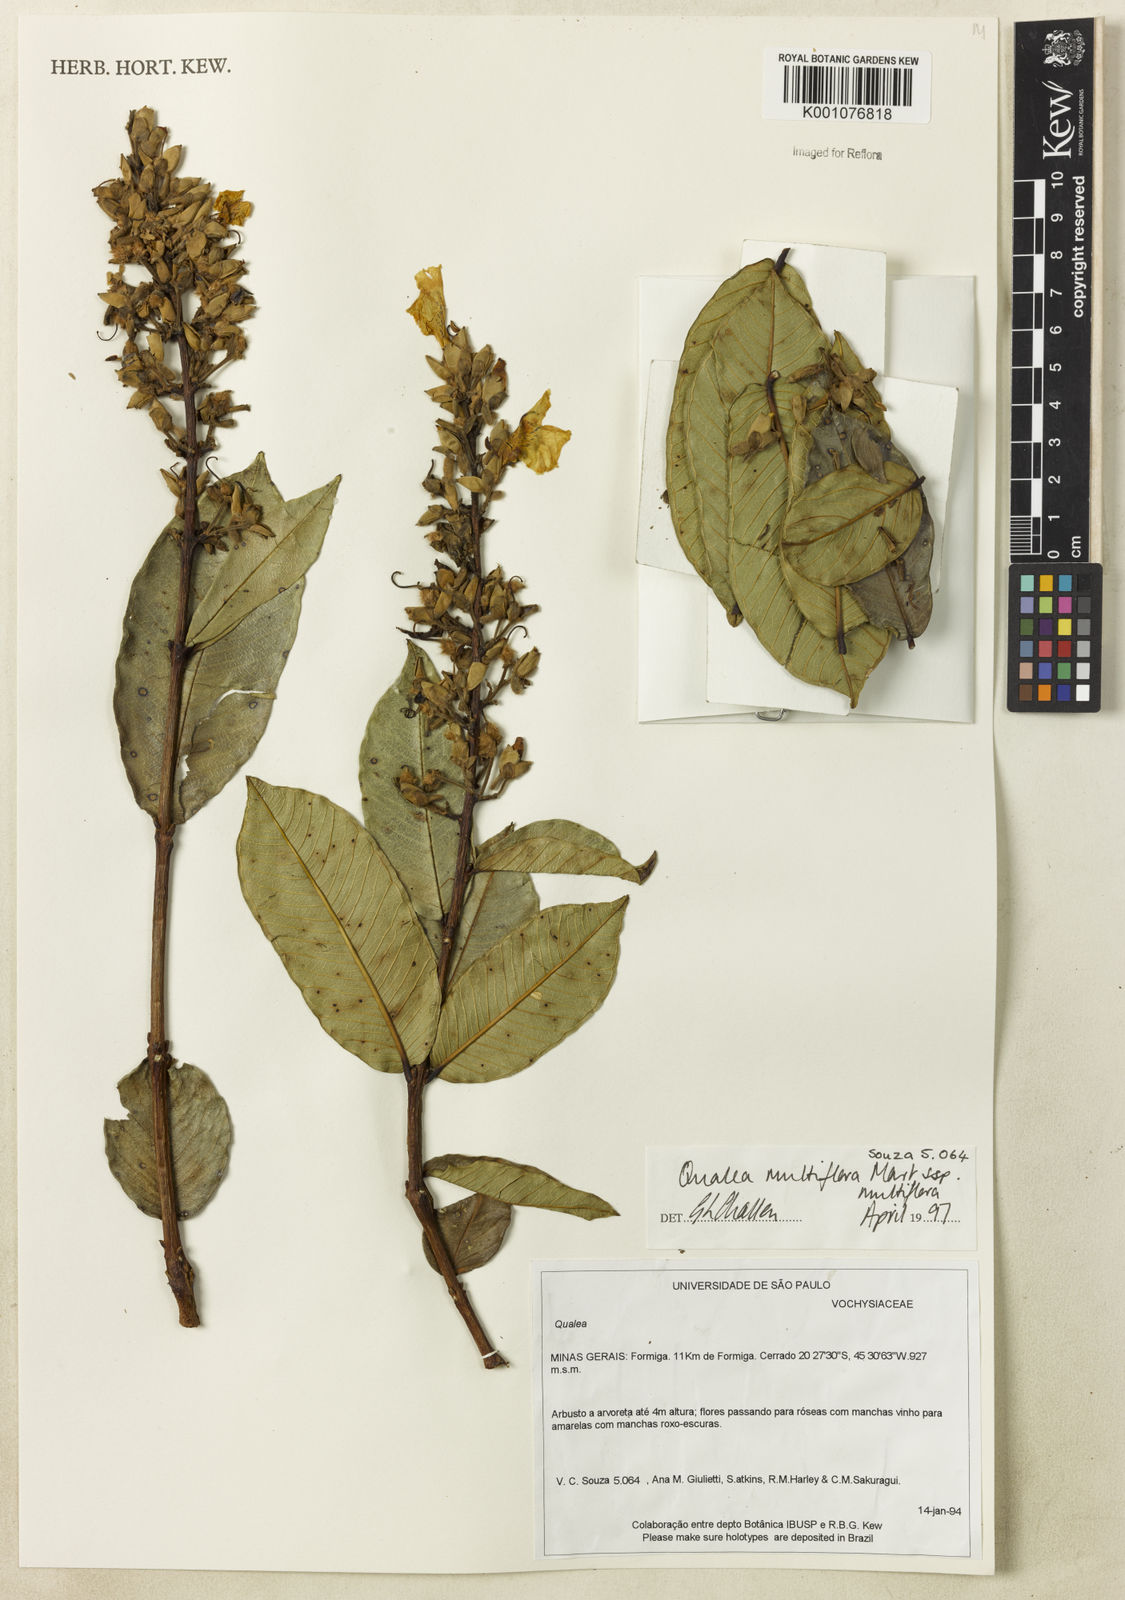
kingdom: Plantae
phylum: Tracheophyta
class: Magnoliopsida
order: Myrtales
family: Vochysiaceae
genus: Qualea
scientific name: Qualea multiflora
